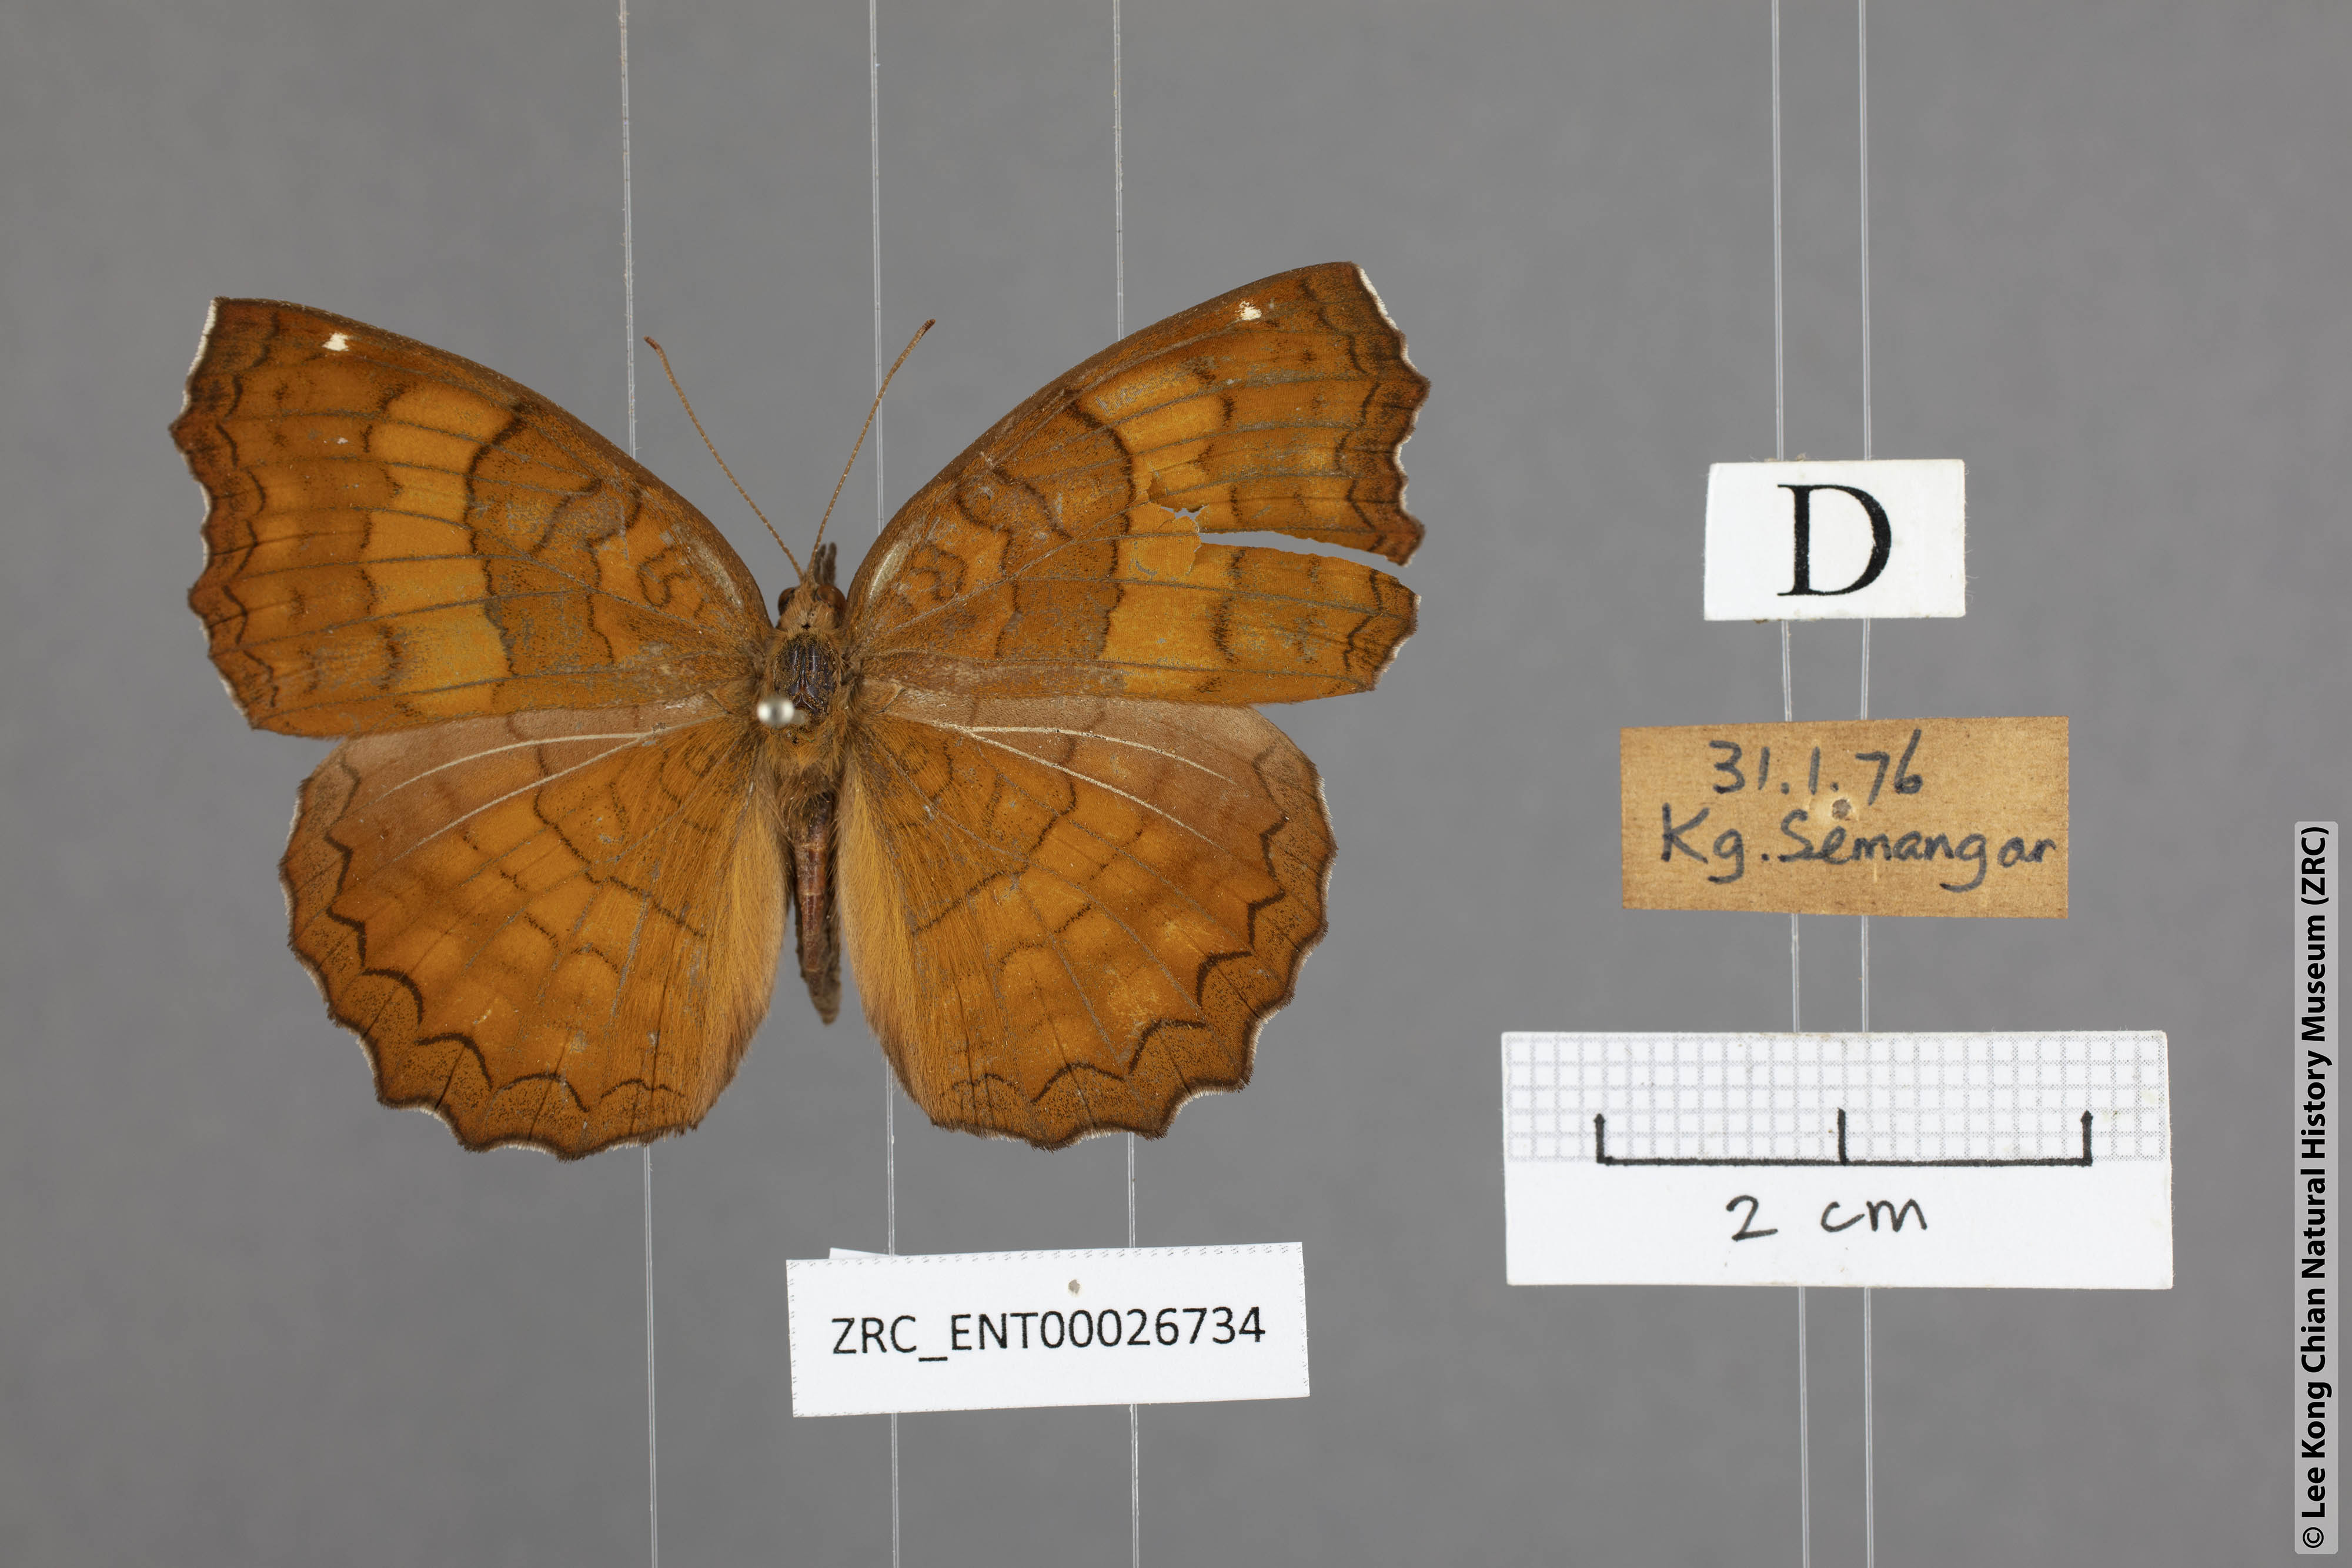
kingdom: Animalia
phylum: Arthropoda
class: Insecta
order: Lepidoptera
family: Nymphalidae
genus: Ariadne
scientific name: Ariadne ariadne
